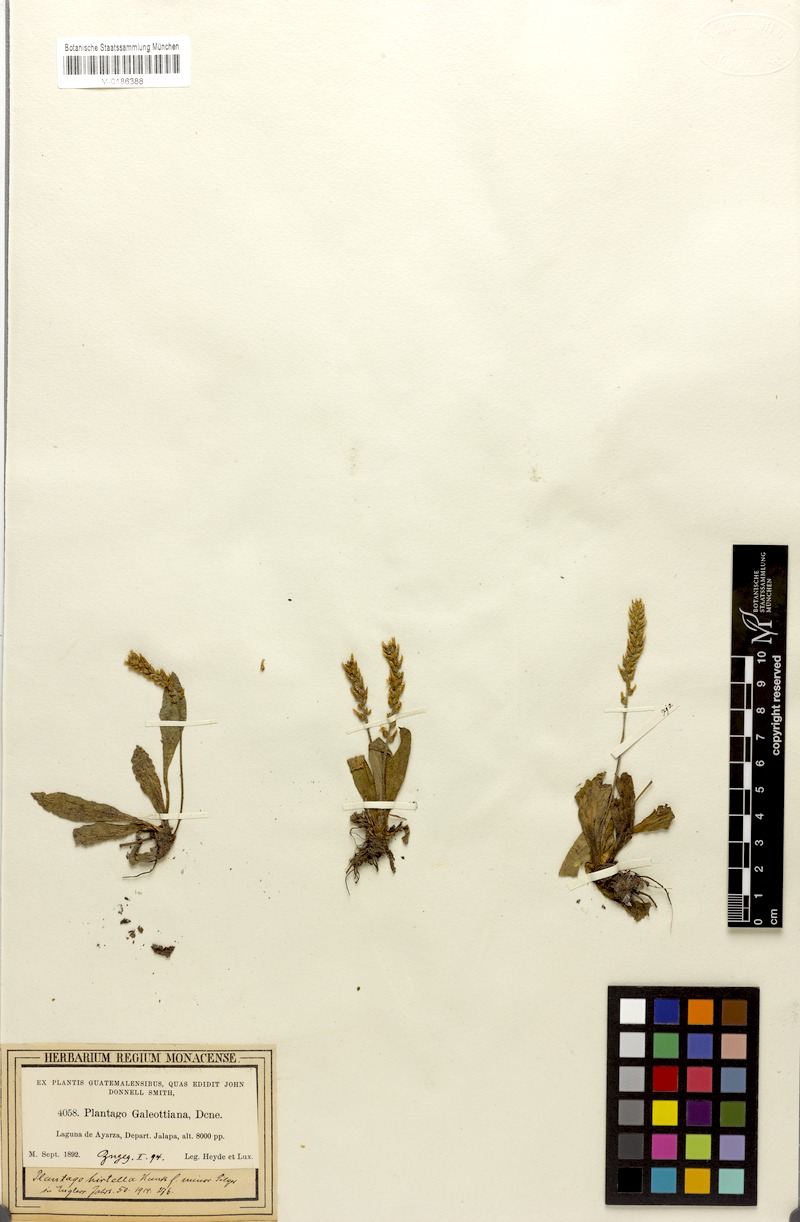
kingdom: Plantae
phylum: Tracheophyta
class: Magnoliopsida
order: Lamiales
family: Plantaginaceae
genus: Plantago
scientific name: Plantago australis
